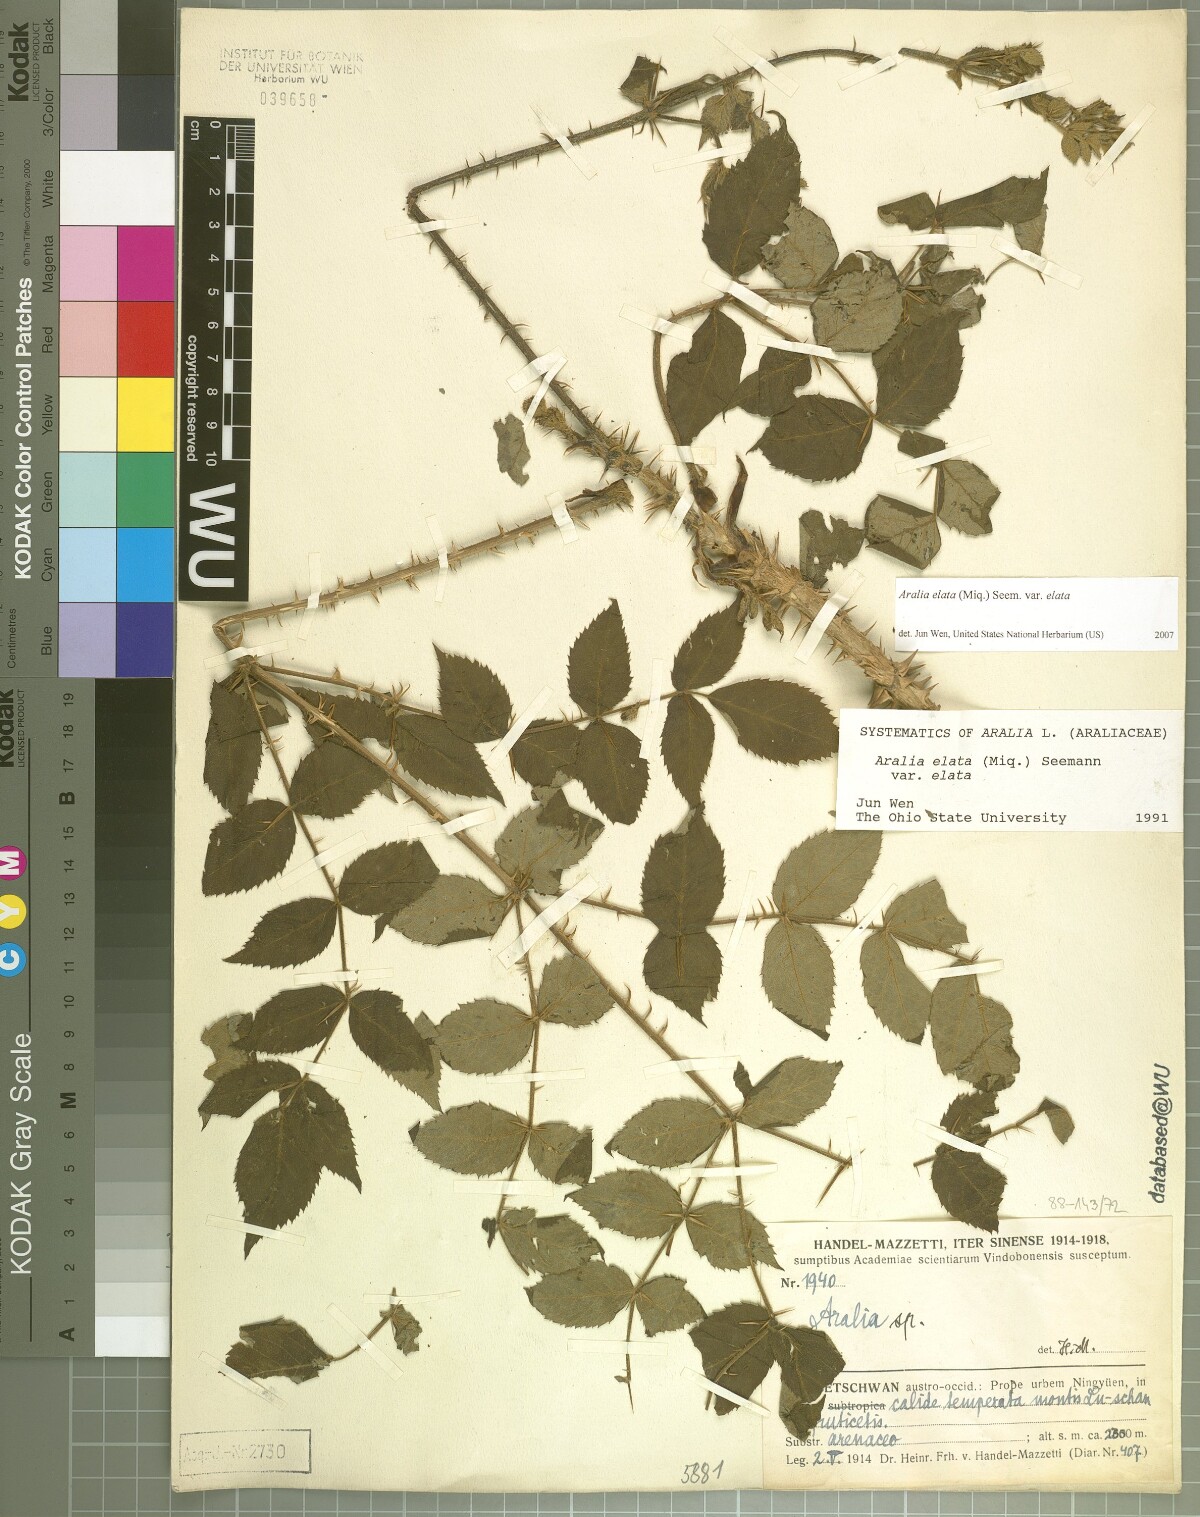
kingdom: Plantae
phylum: Tracheophyta
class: Magnoliopsida
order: Apiales
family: Araliaceae
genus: Aralia
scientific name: Aralia elata
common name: Japanese angelica-tree
